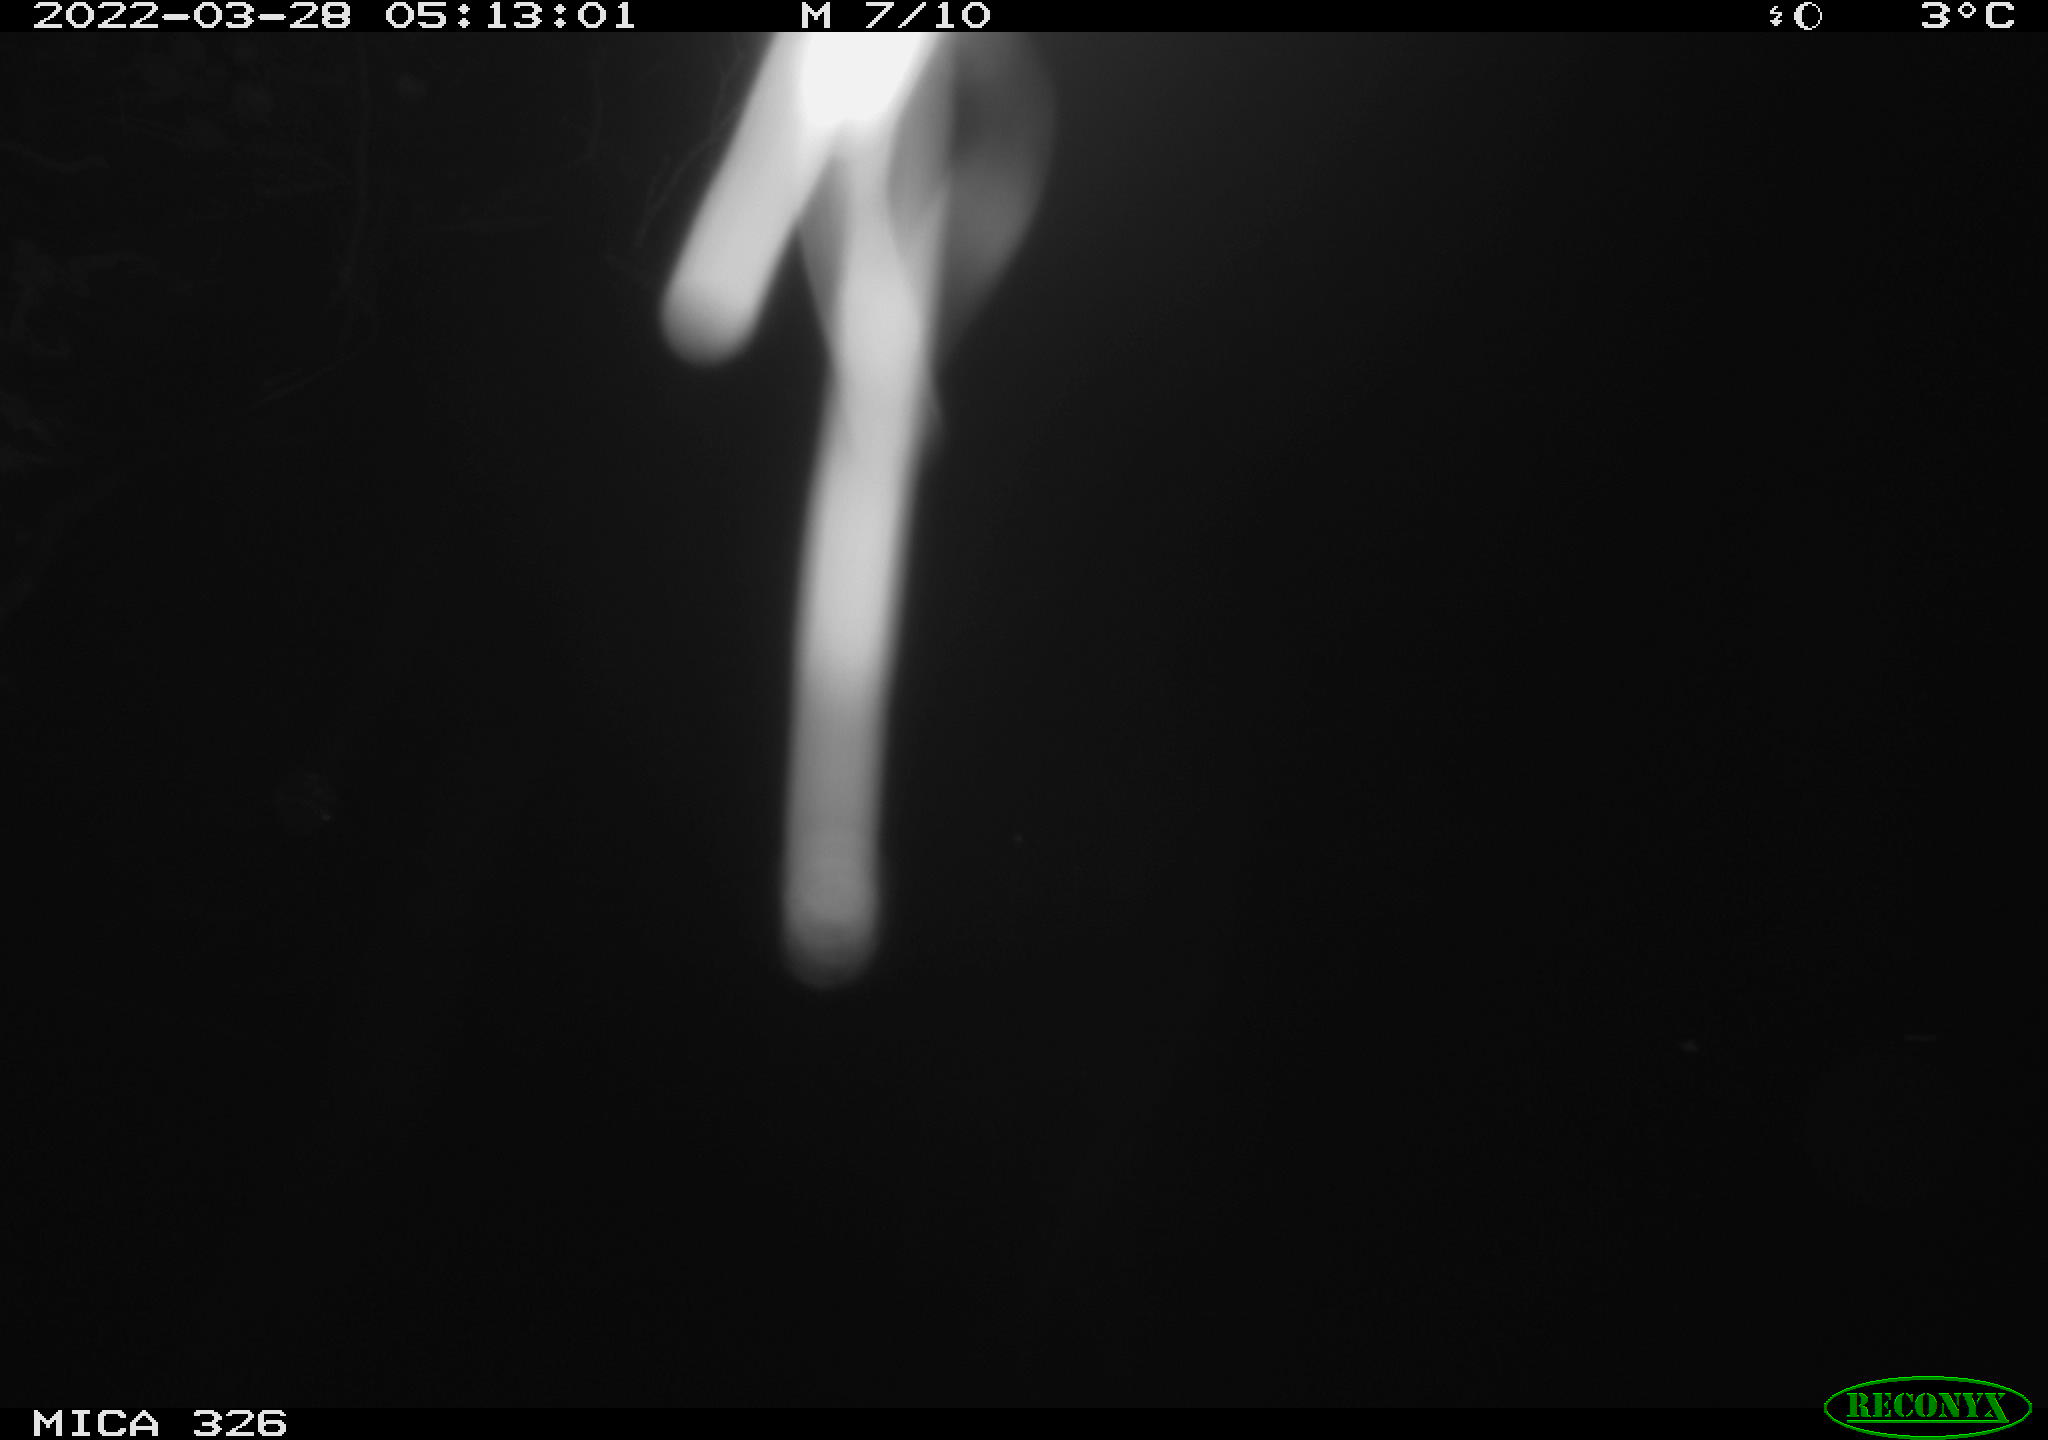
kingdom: Animalia
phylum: Chordata
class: Mammalia
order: Rodentia
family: Muridae
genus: Rattus
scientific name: Rattus norvegicus
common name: Brown rat
